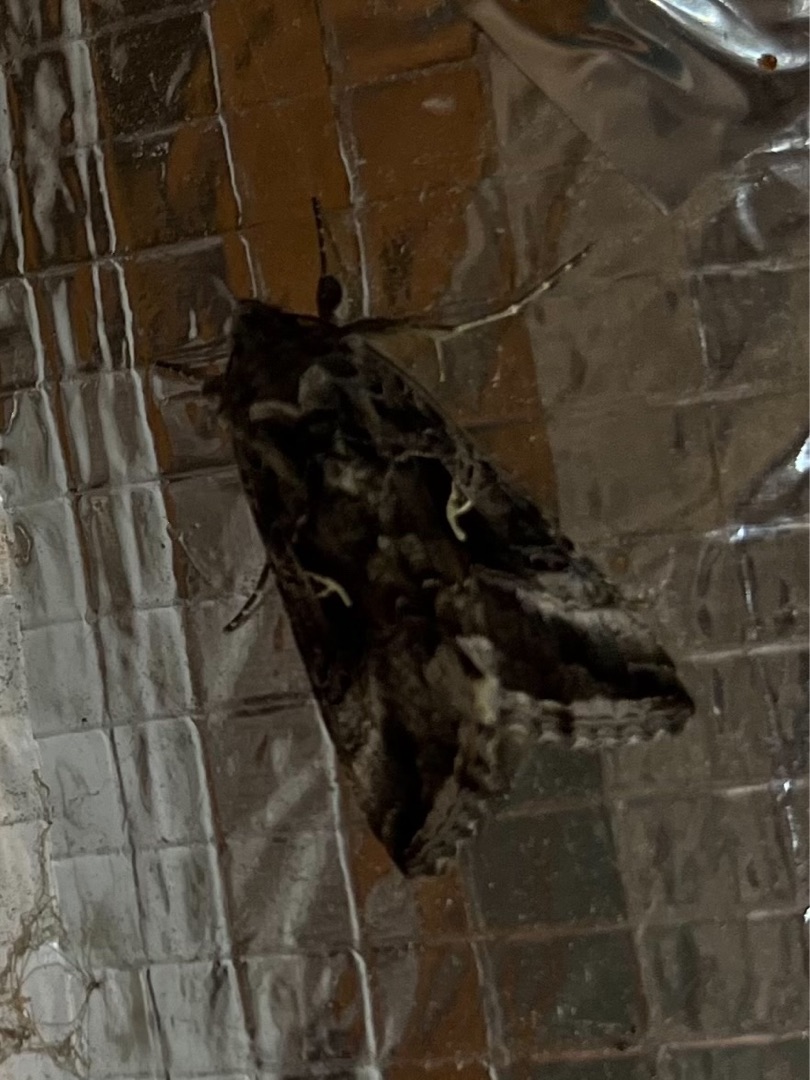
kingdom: Animalia
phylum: Arthropoda
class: Insecta
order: Lepidoptera
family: Noctuidae
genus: Autographa
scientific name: Autographa gamma
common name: Gammaugle
